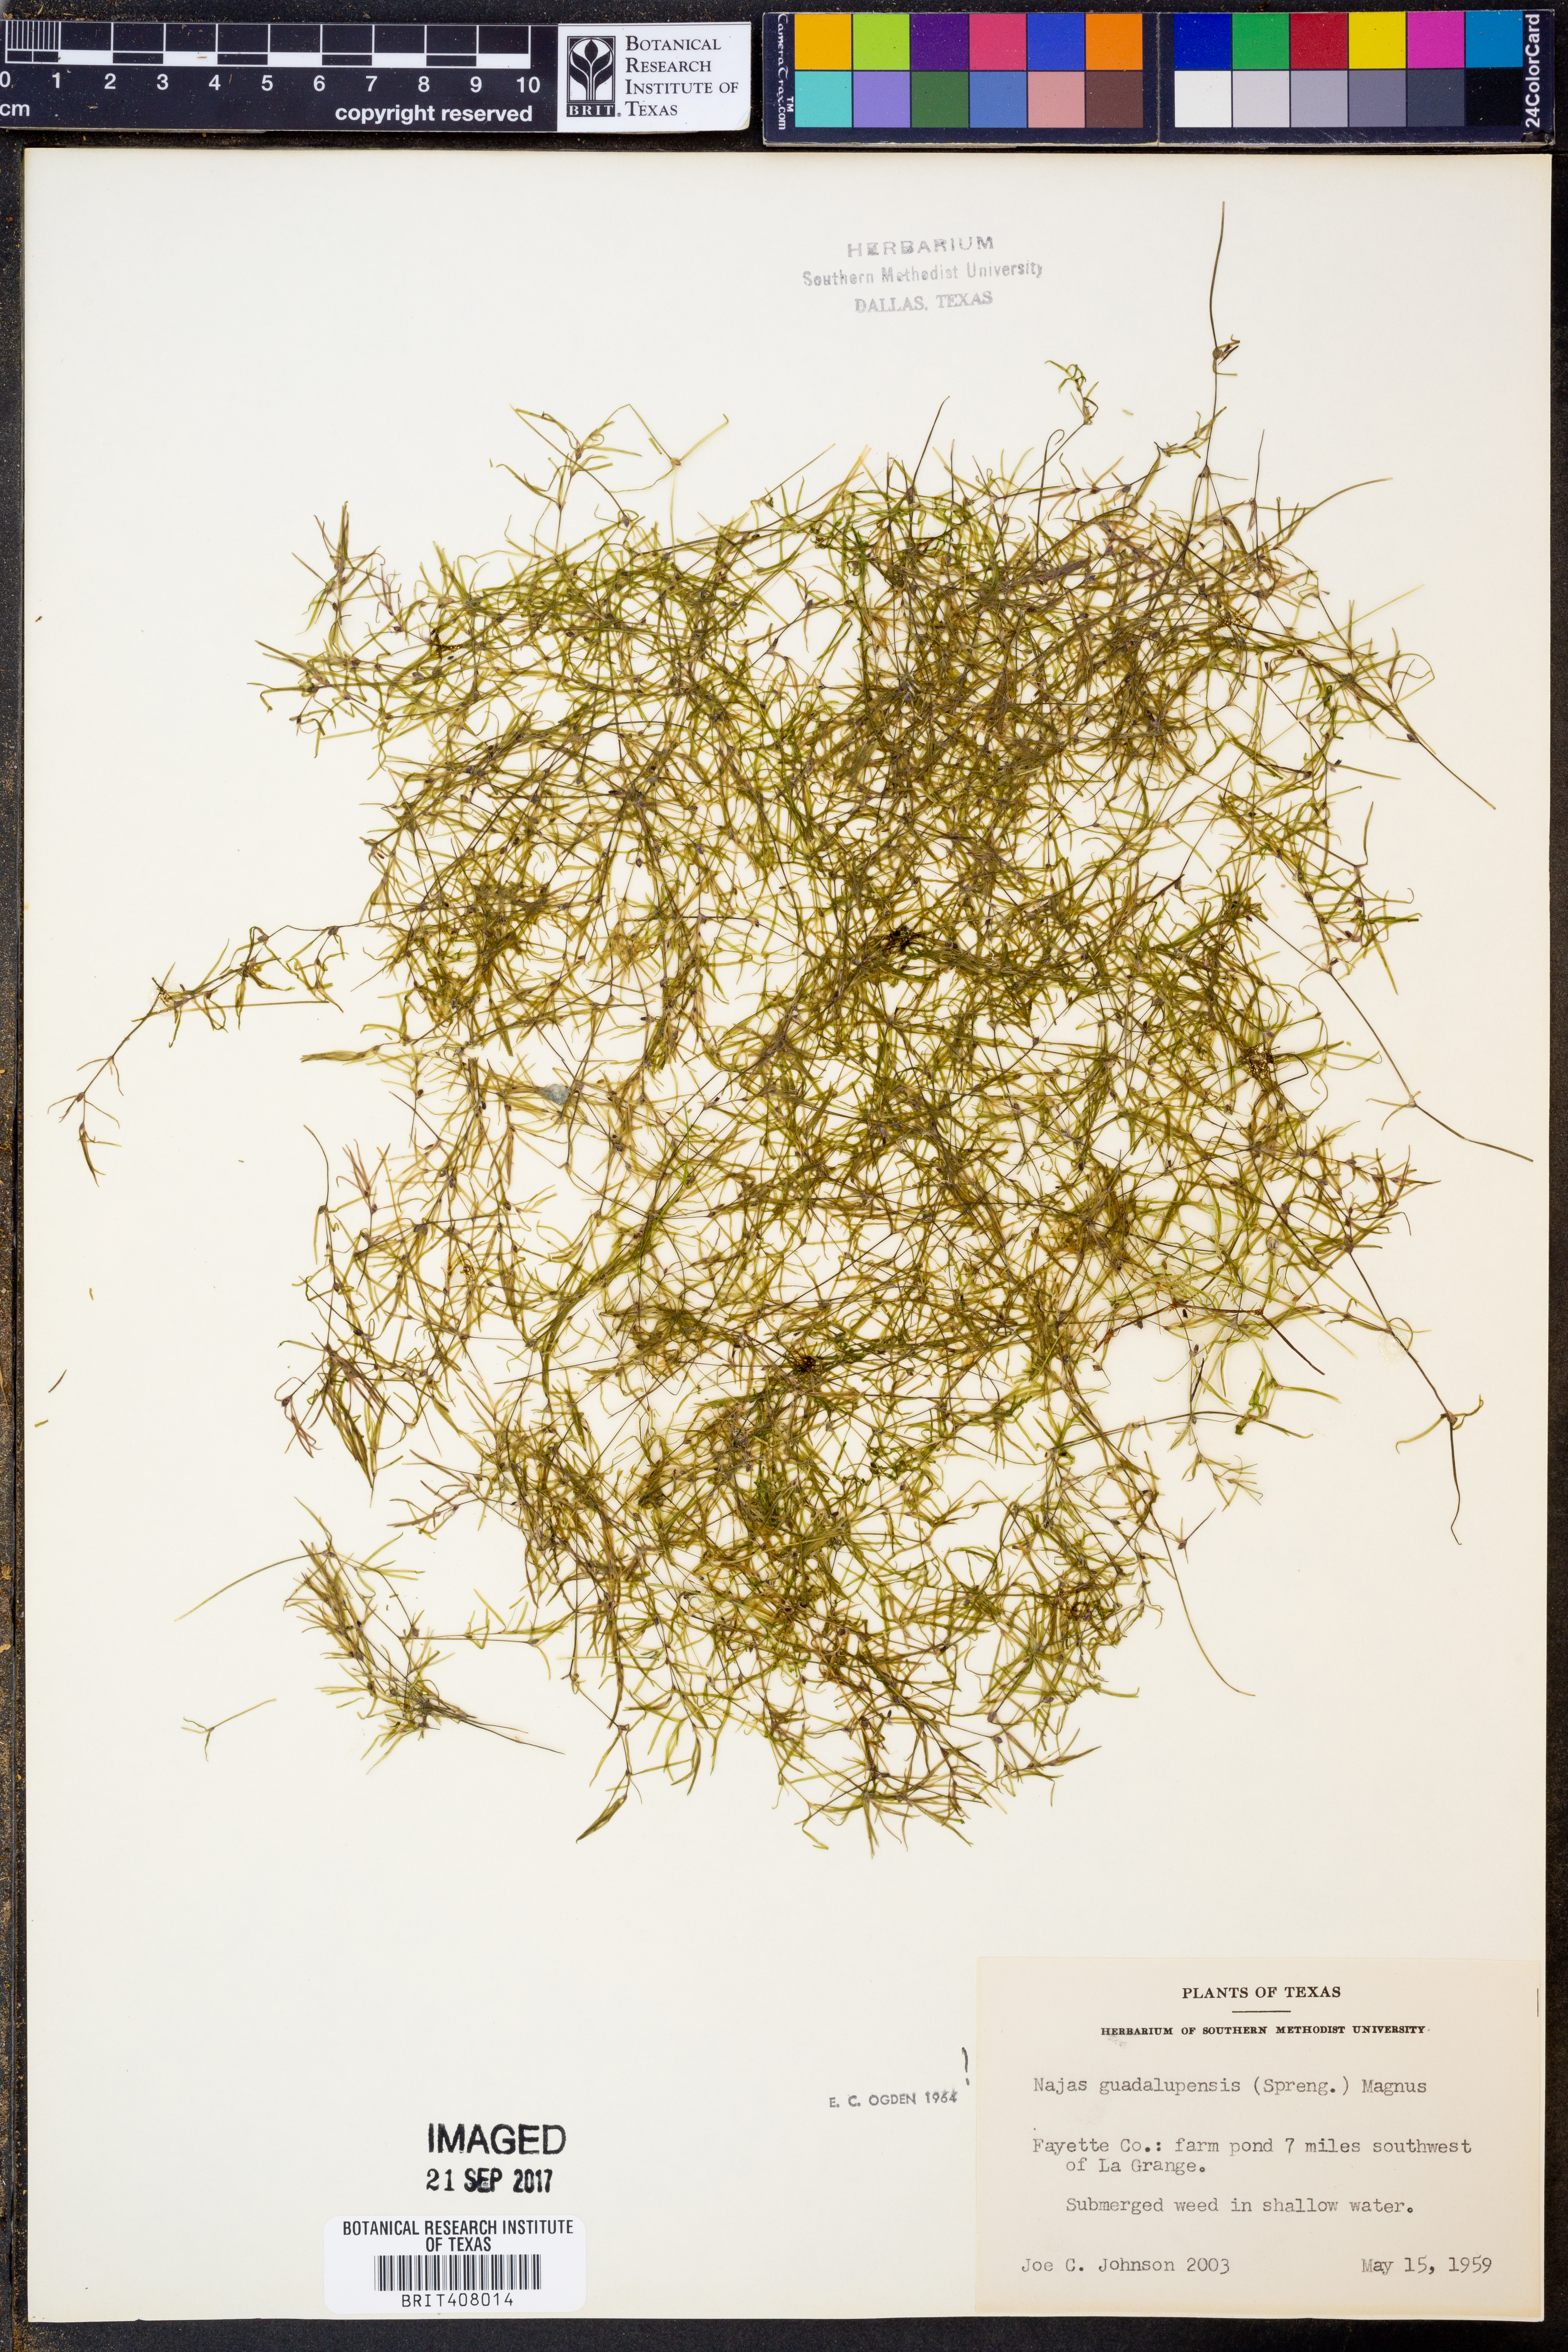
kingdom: Plantae
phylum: Tracheophyta
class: Liliopsida
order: Alismatales
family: Hydrocharitaceae
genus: Najas
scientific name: Najas guadalupensis
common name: Southern naiad
